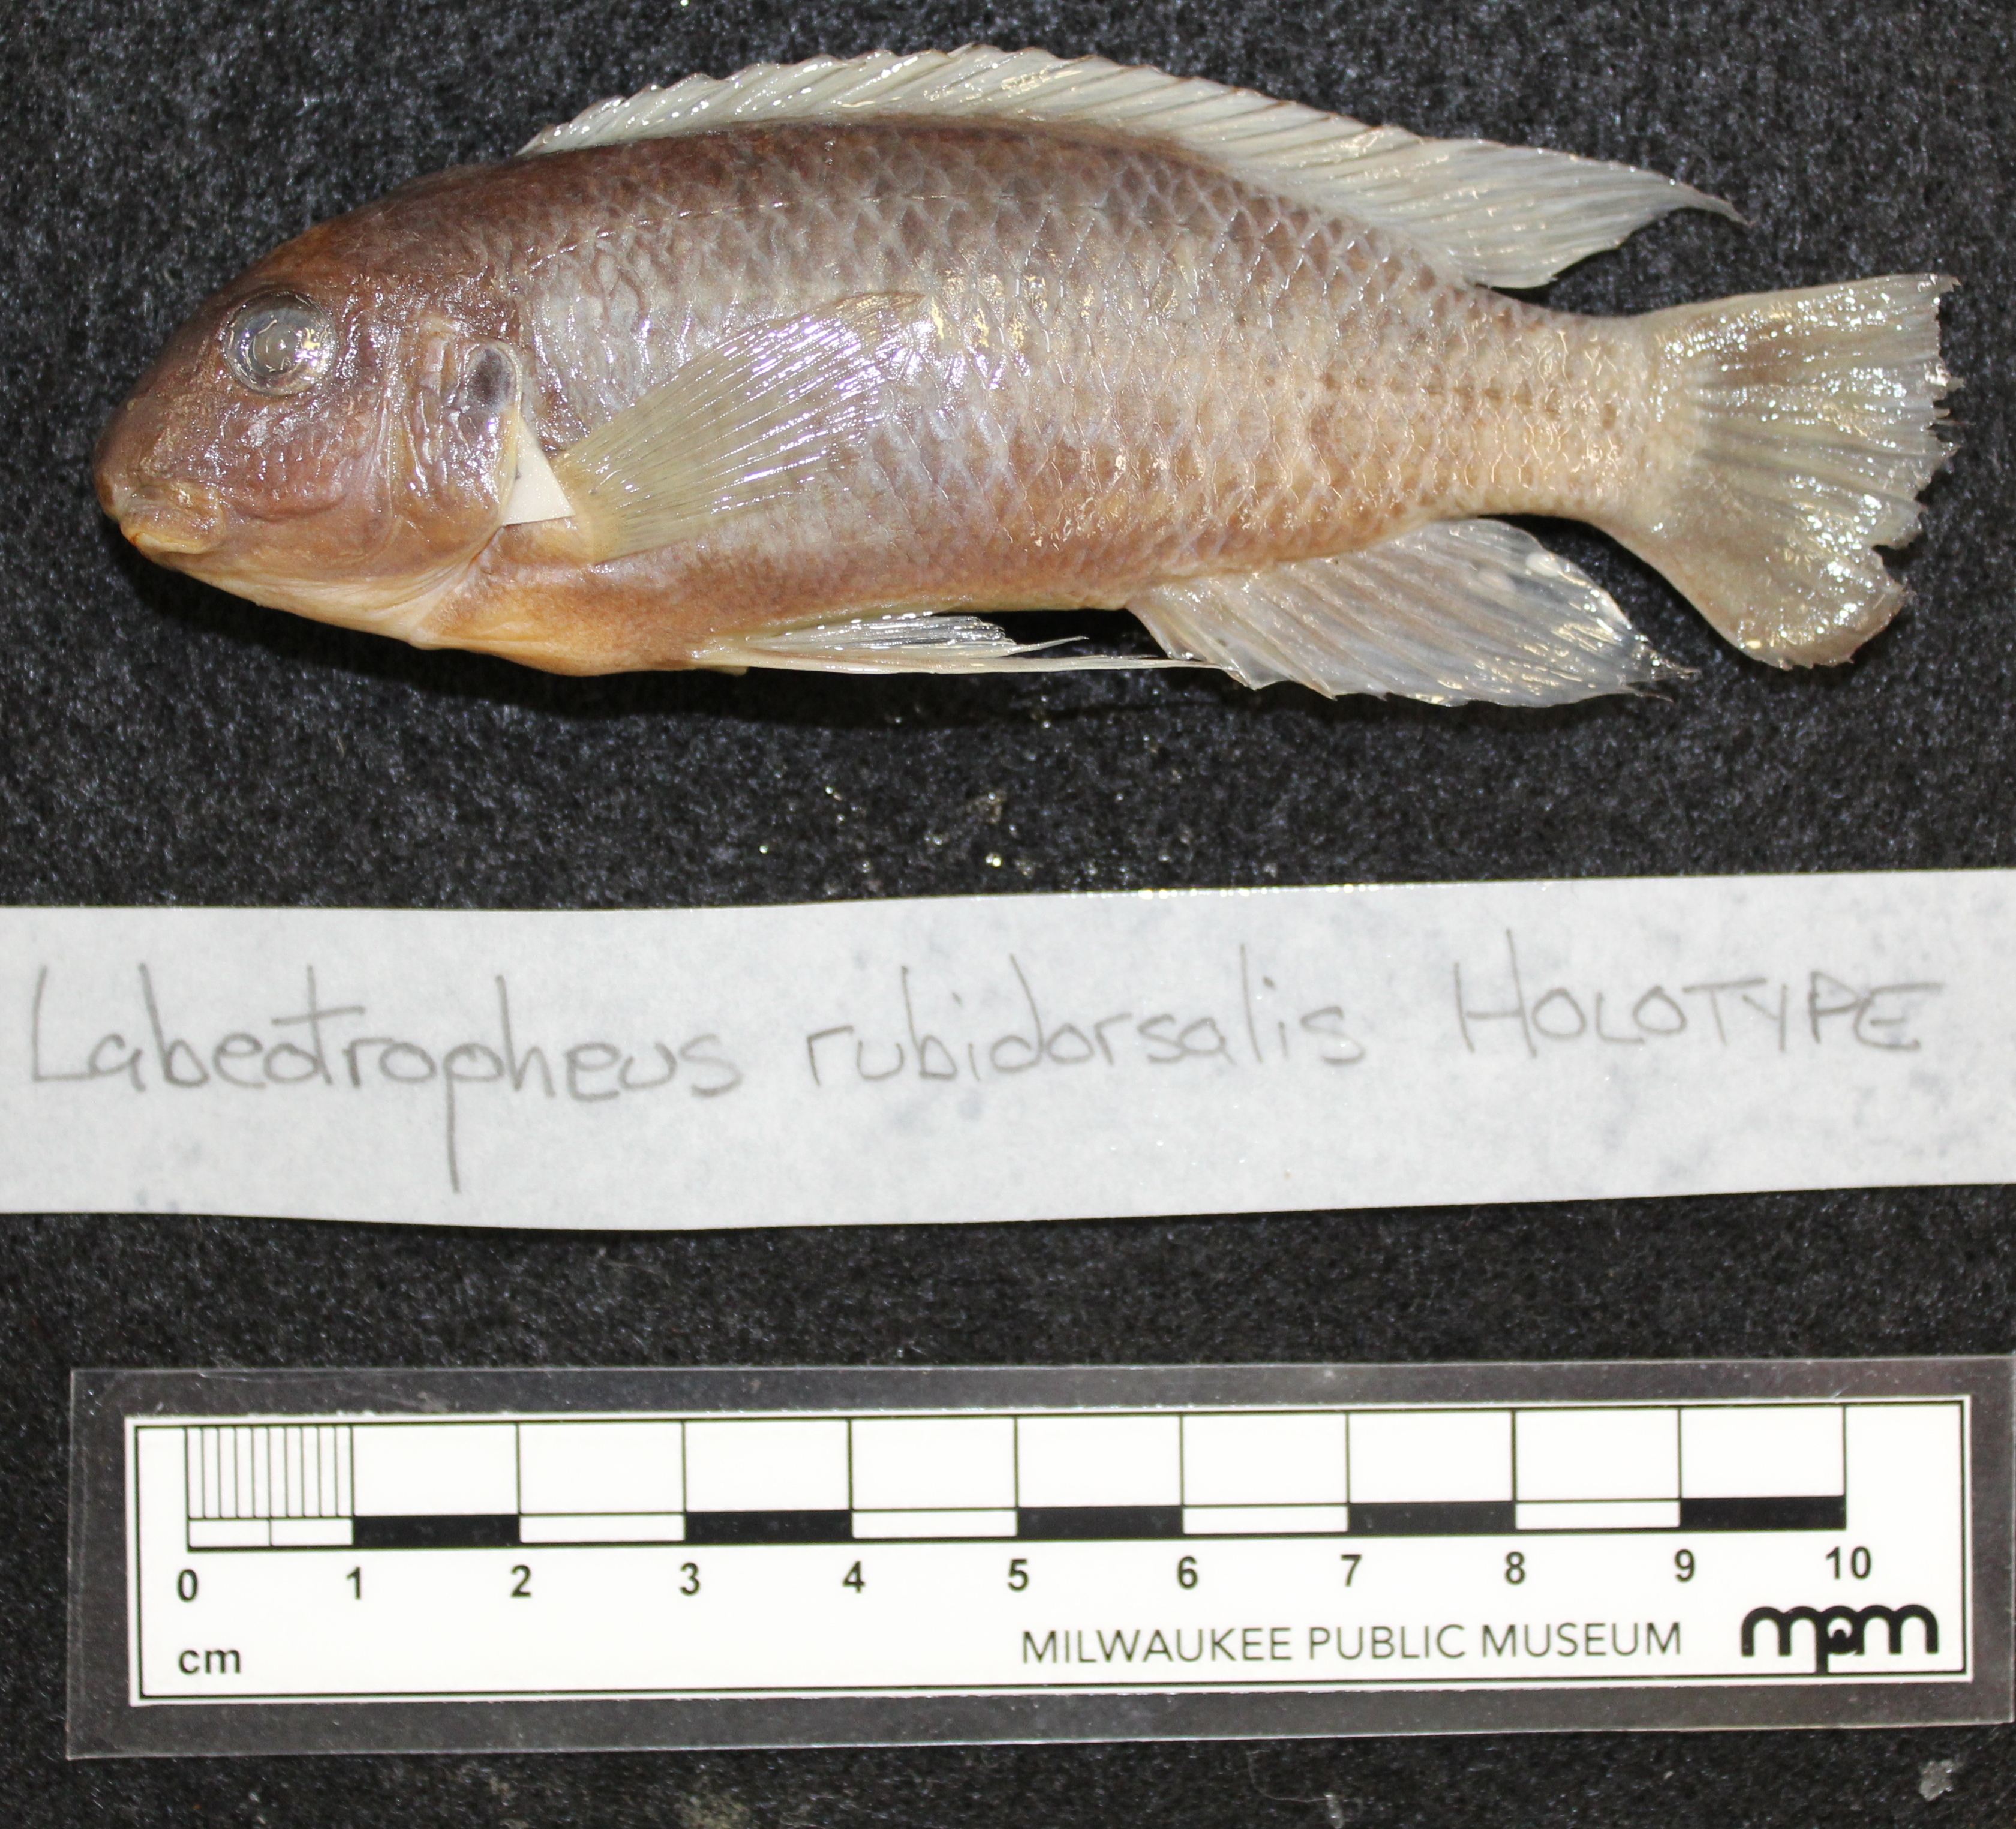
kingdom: Animalia
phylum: Chordata
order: Perciformes
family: Cichlidae
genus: Labeotropheus
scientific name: Labeotropheus
